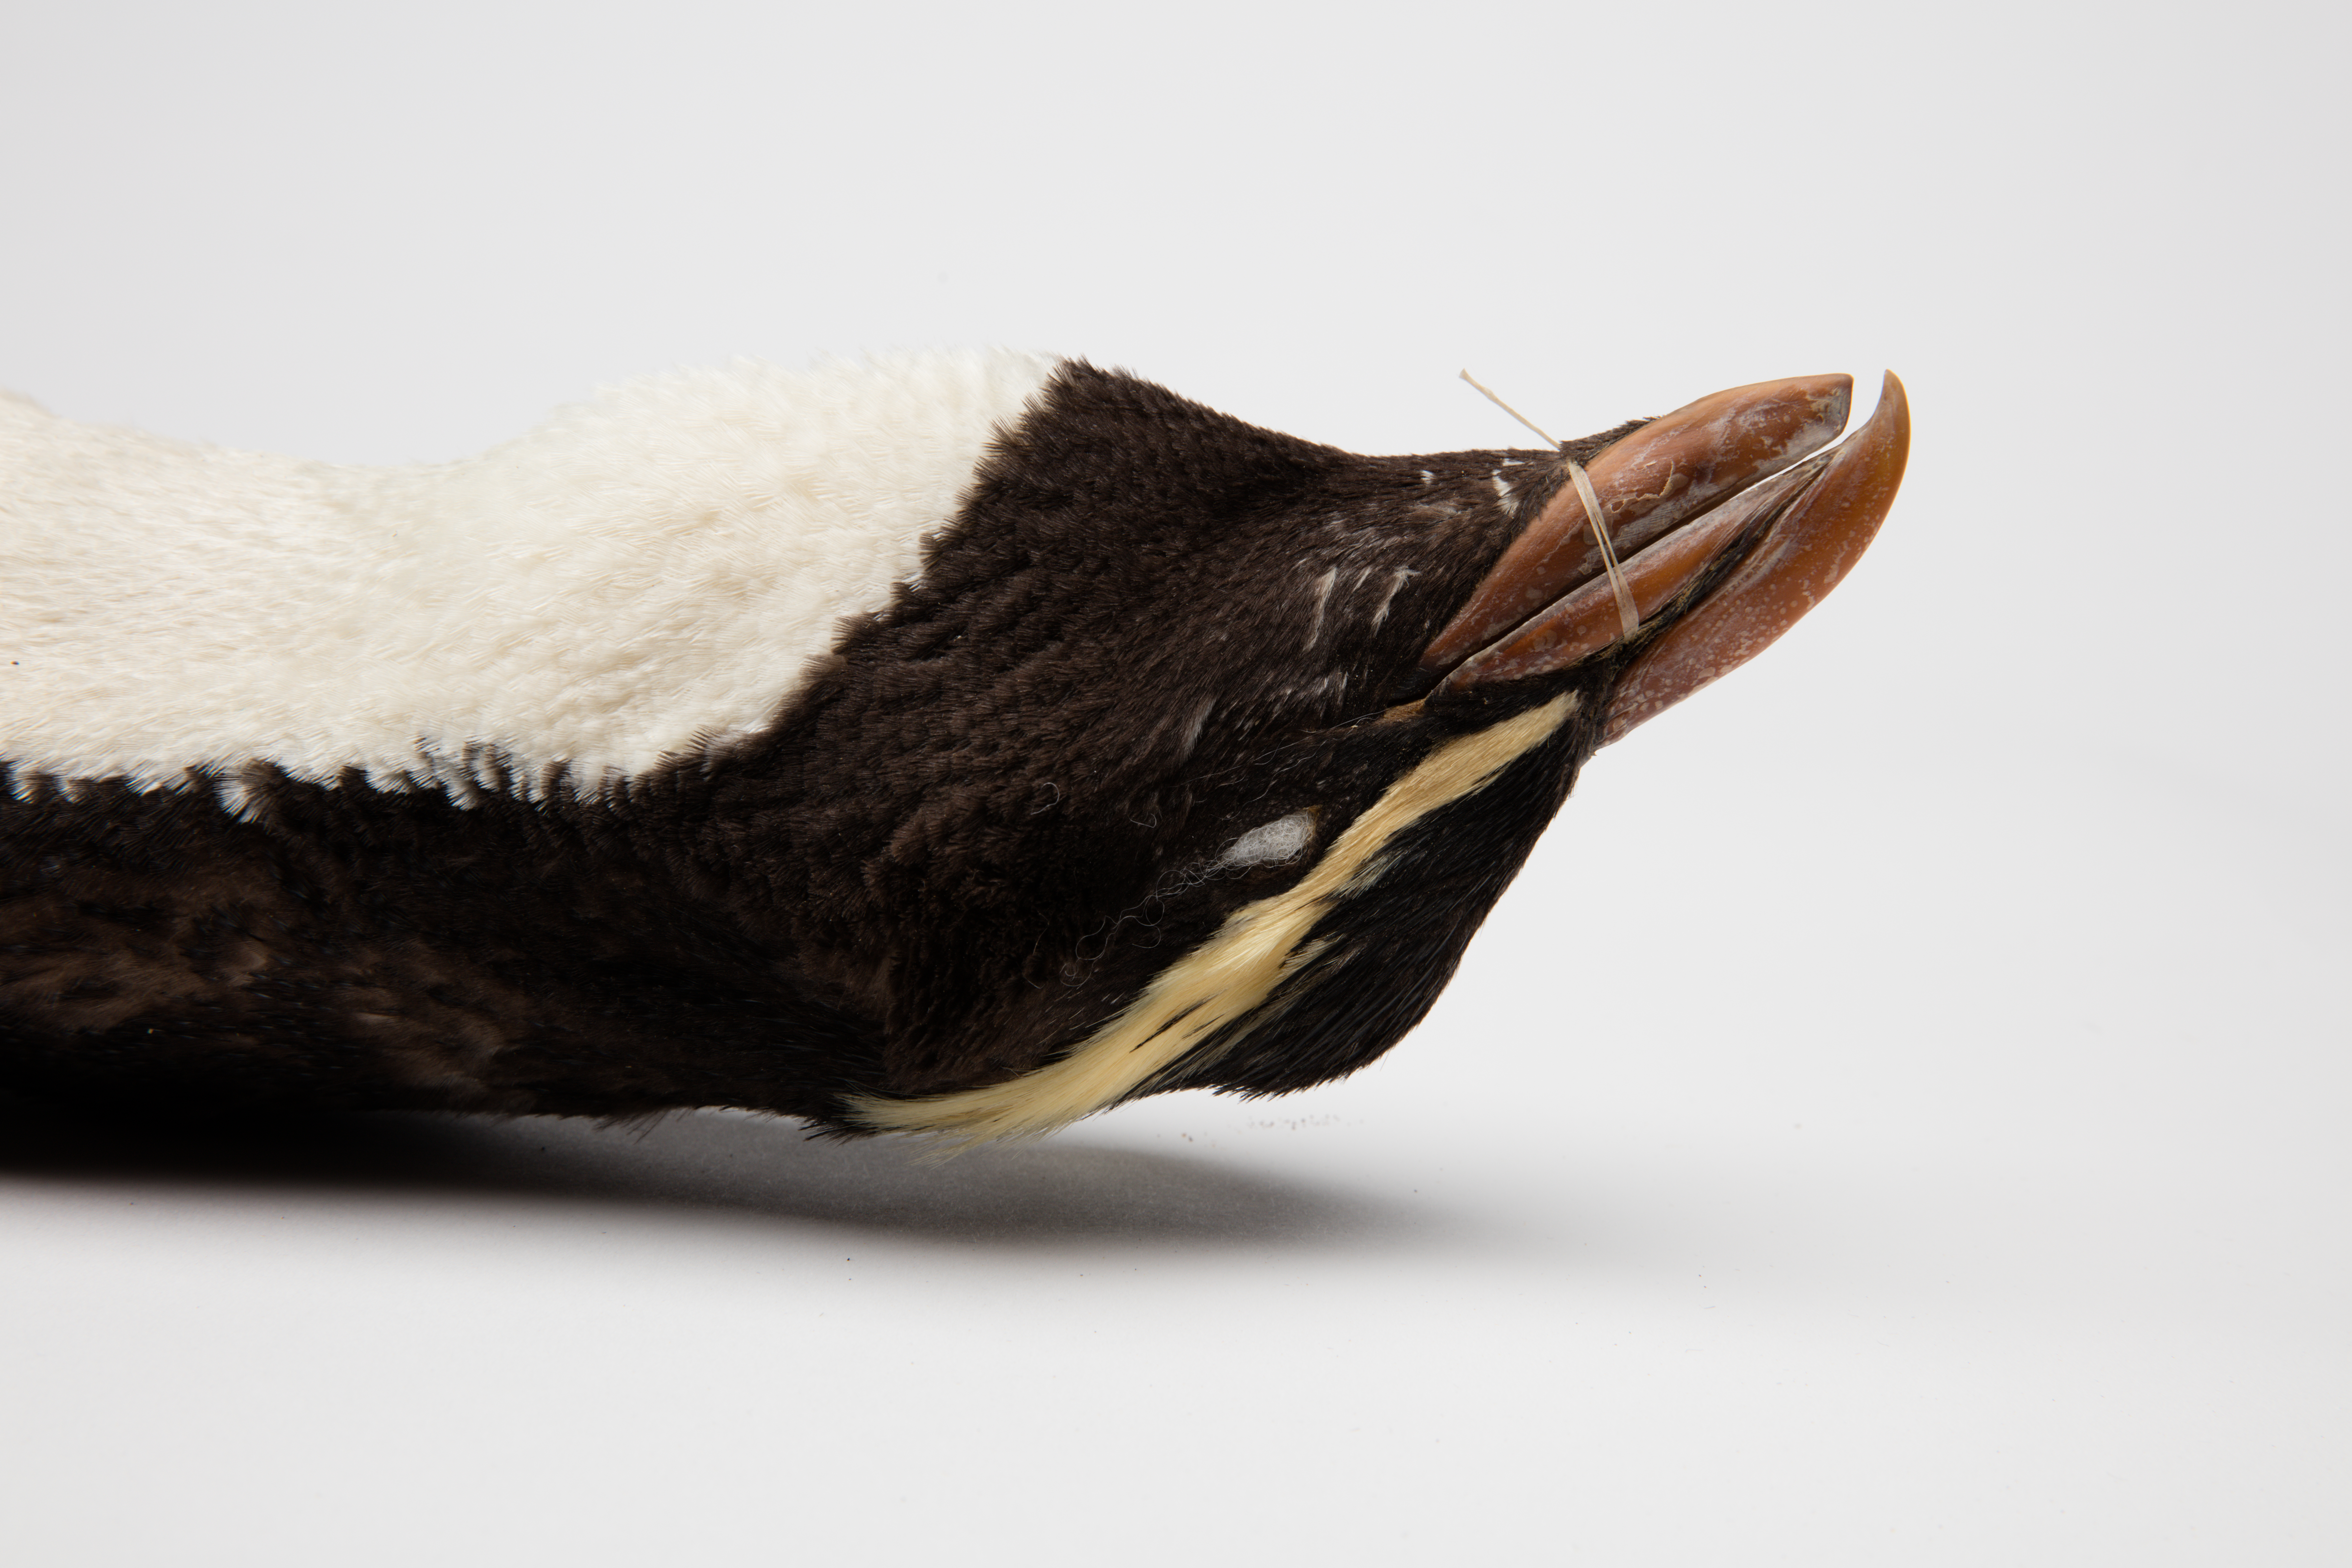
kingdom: Animalia
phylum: Chordata
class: Aves
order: Sphenisciformes
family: Spheniscidae
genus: Eudyptes
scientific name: Eudyptes pachyrhynchus
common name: Fiordland penguin
